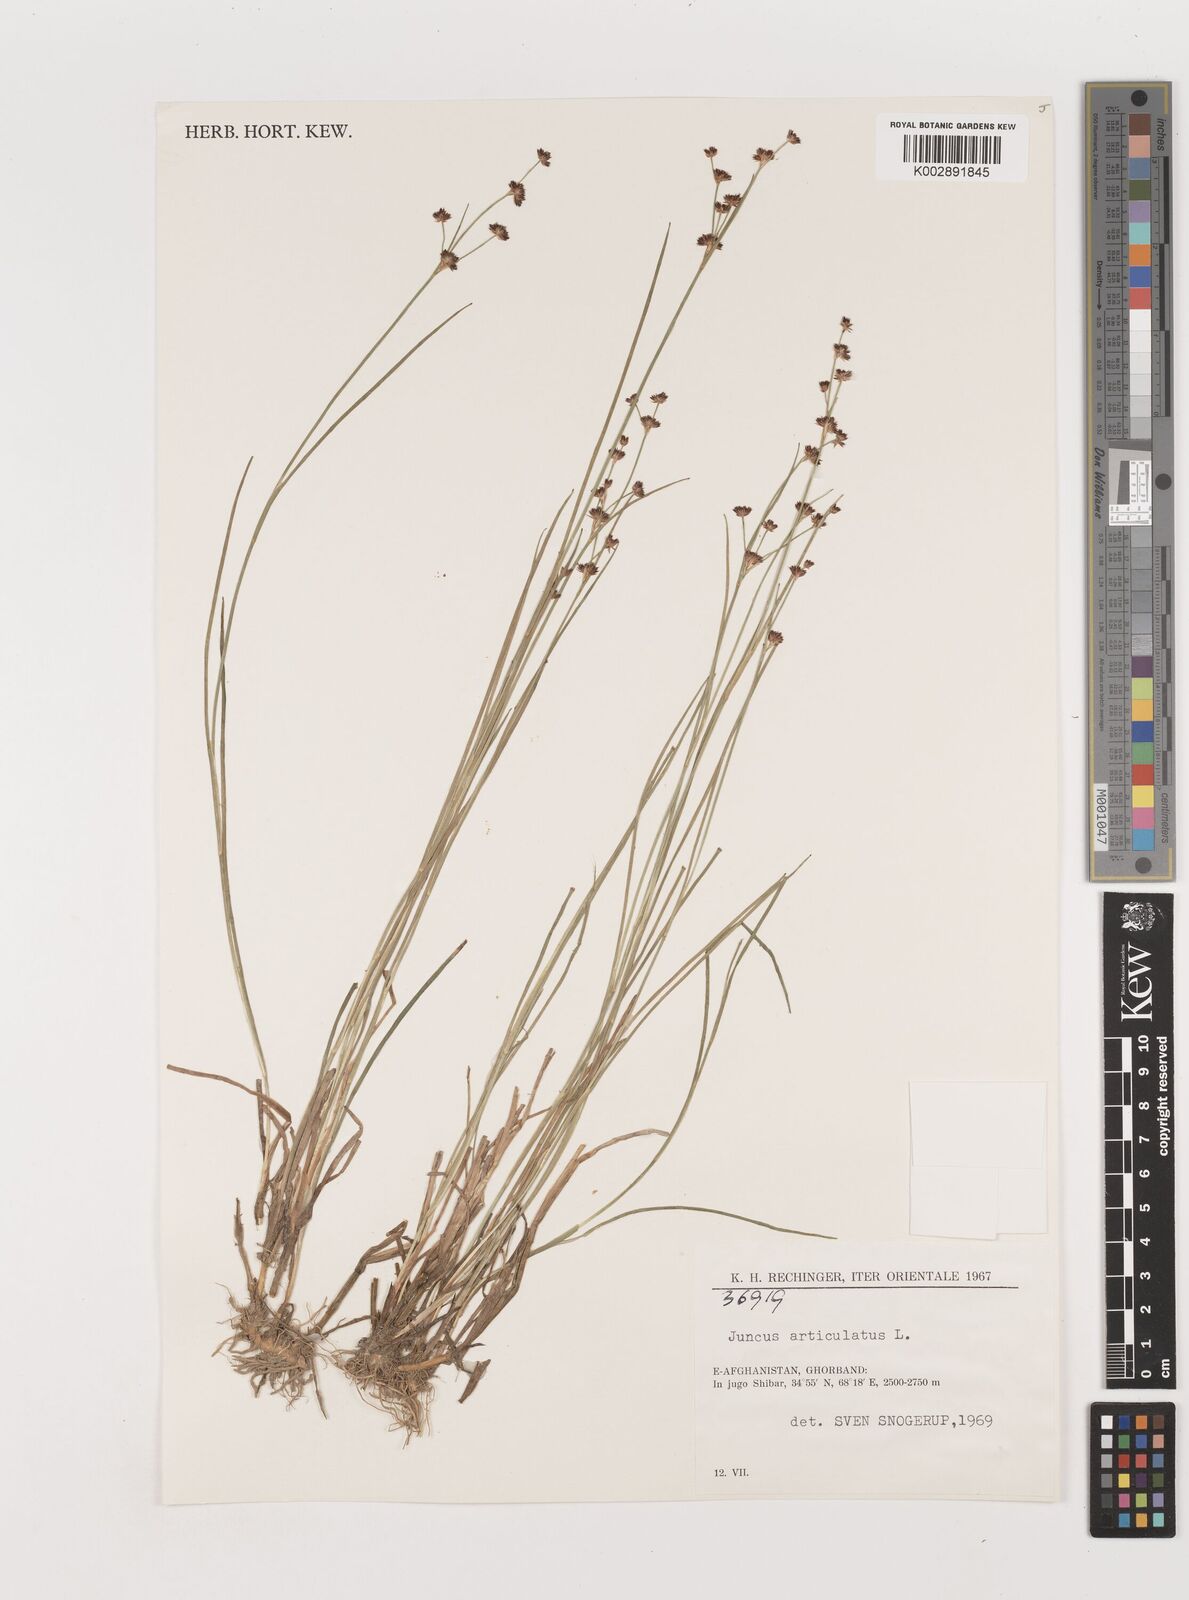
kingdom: Plantae
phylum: Tracheophyta
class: Liliopsida
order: Poales
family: Juncaceae
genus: Juncus
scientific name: Juncus articulatus
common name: Jointed rush
